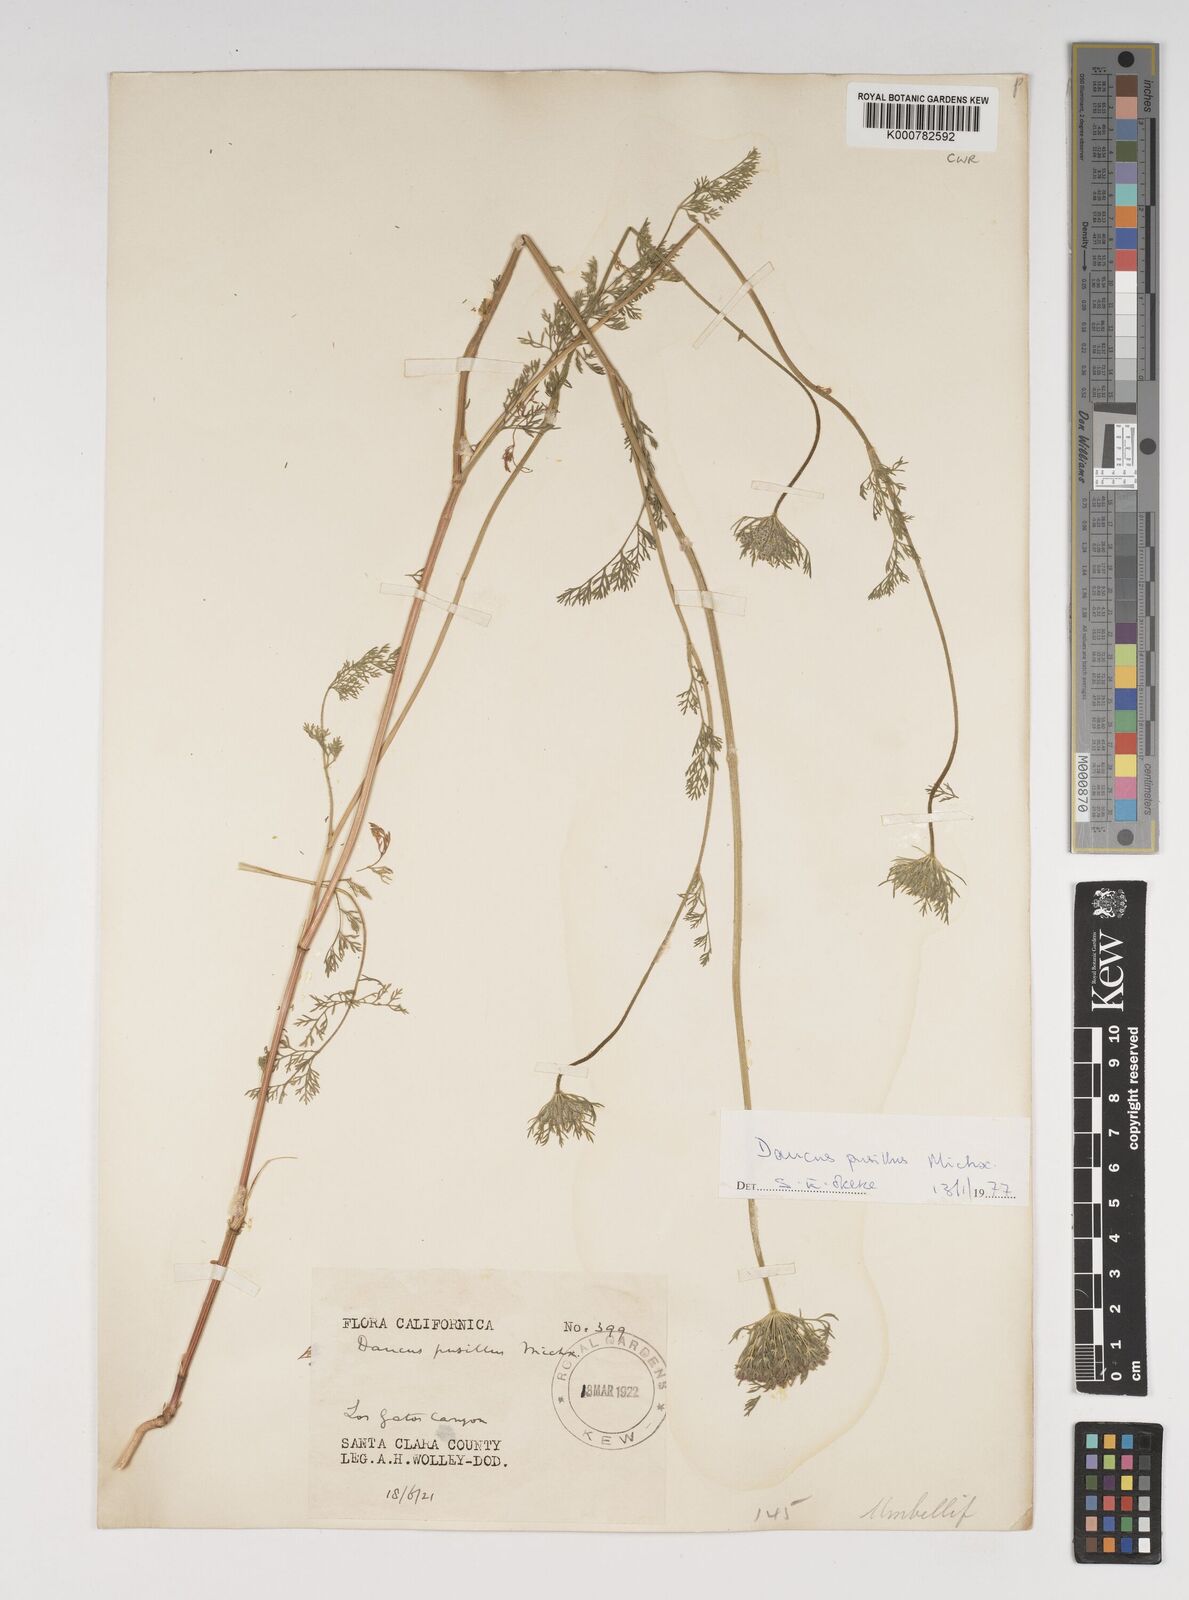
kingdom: Plantae
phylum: Tracheophyta
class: Magnoliopsida
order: Apiales
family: Apiaceae
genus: Daucus
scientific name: Daucus pusillus
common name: Southwest wild carrot
